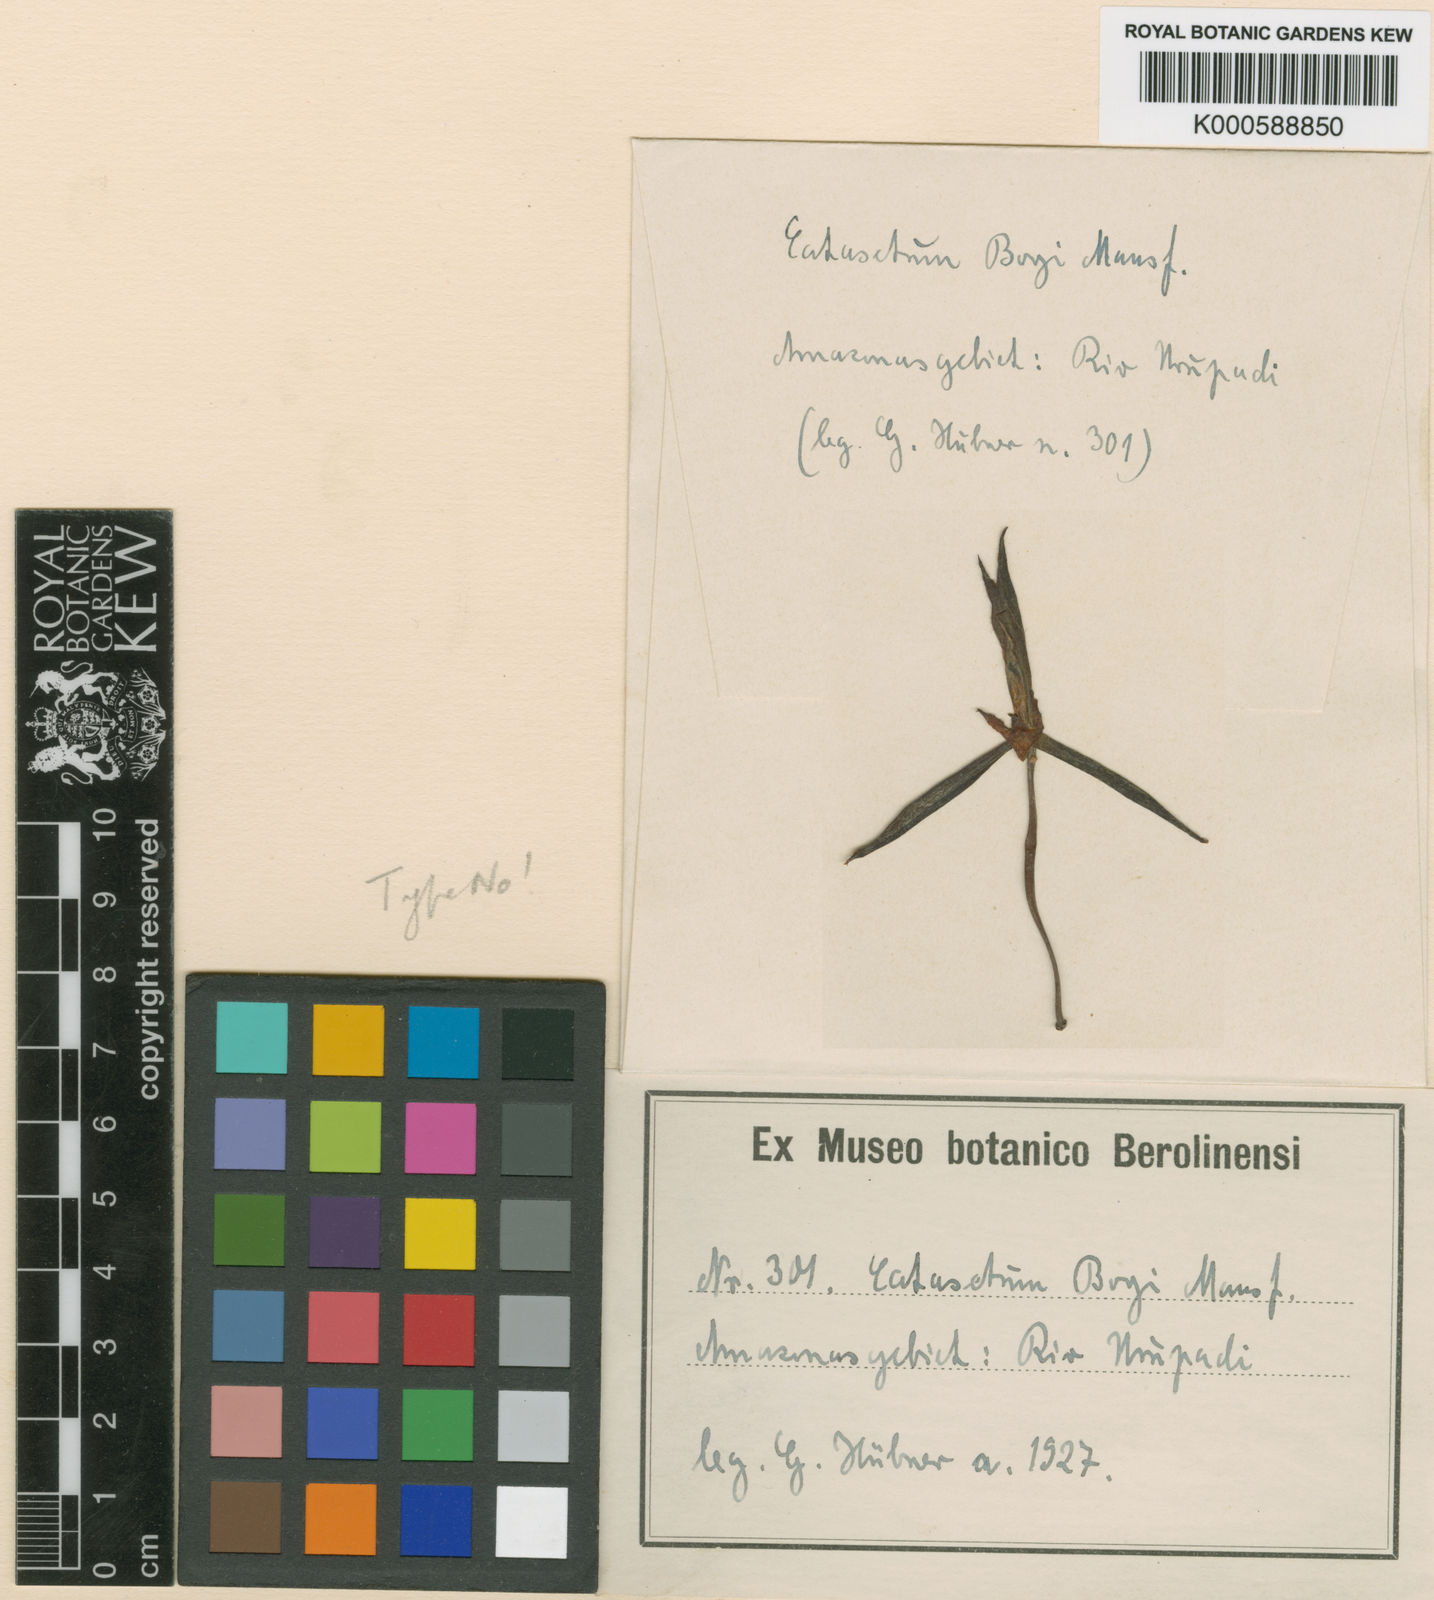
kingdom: Plantae
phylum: Tracheophyta
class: Liliopsida
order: Asparagales
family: Orchidaceae
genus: Catasetum
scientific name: Catasetum boyi
